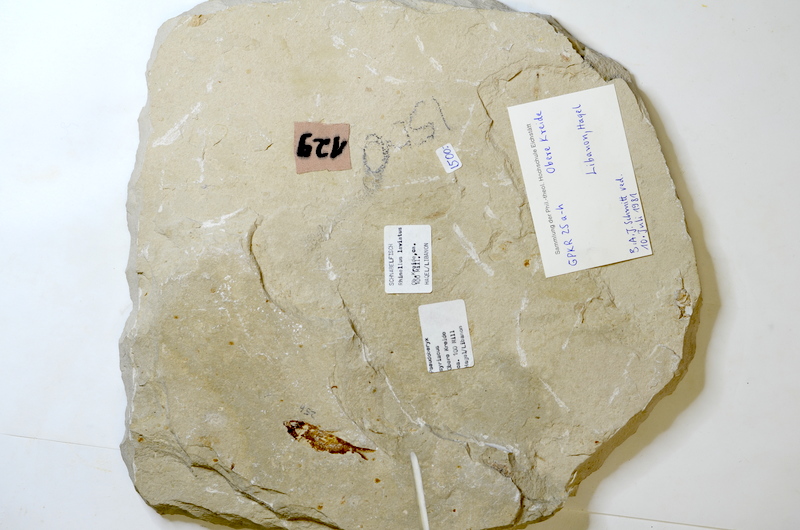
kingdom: Animalia
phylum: Chordata
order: Clupeiformes
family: Clupeidae
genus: Clupea
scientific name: Clupea harengus
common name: Herring
